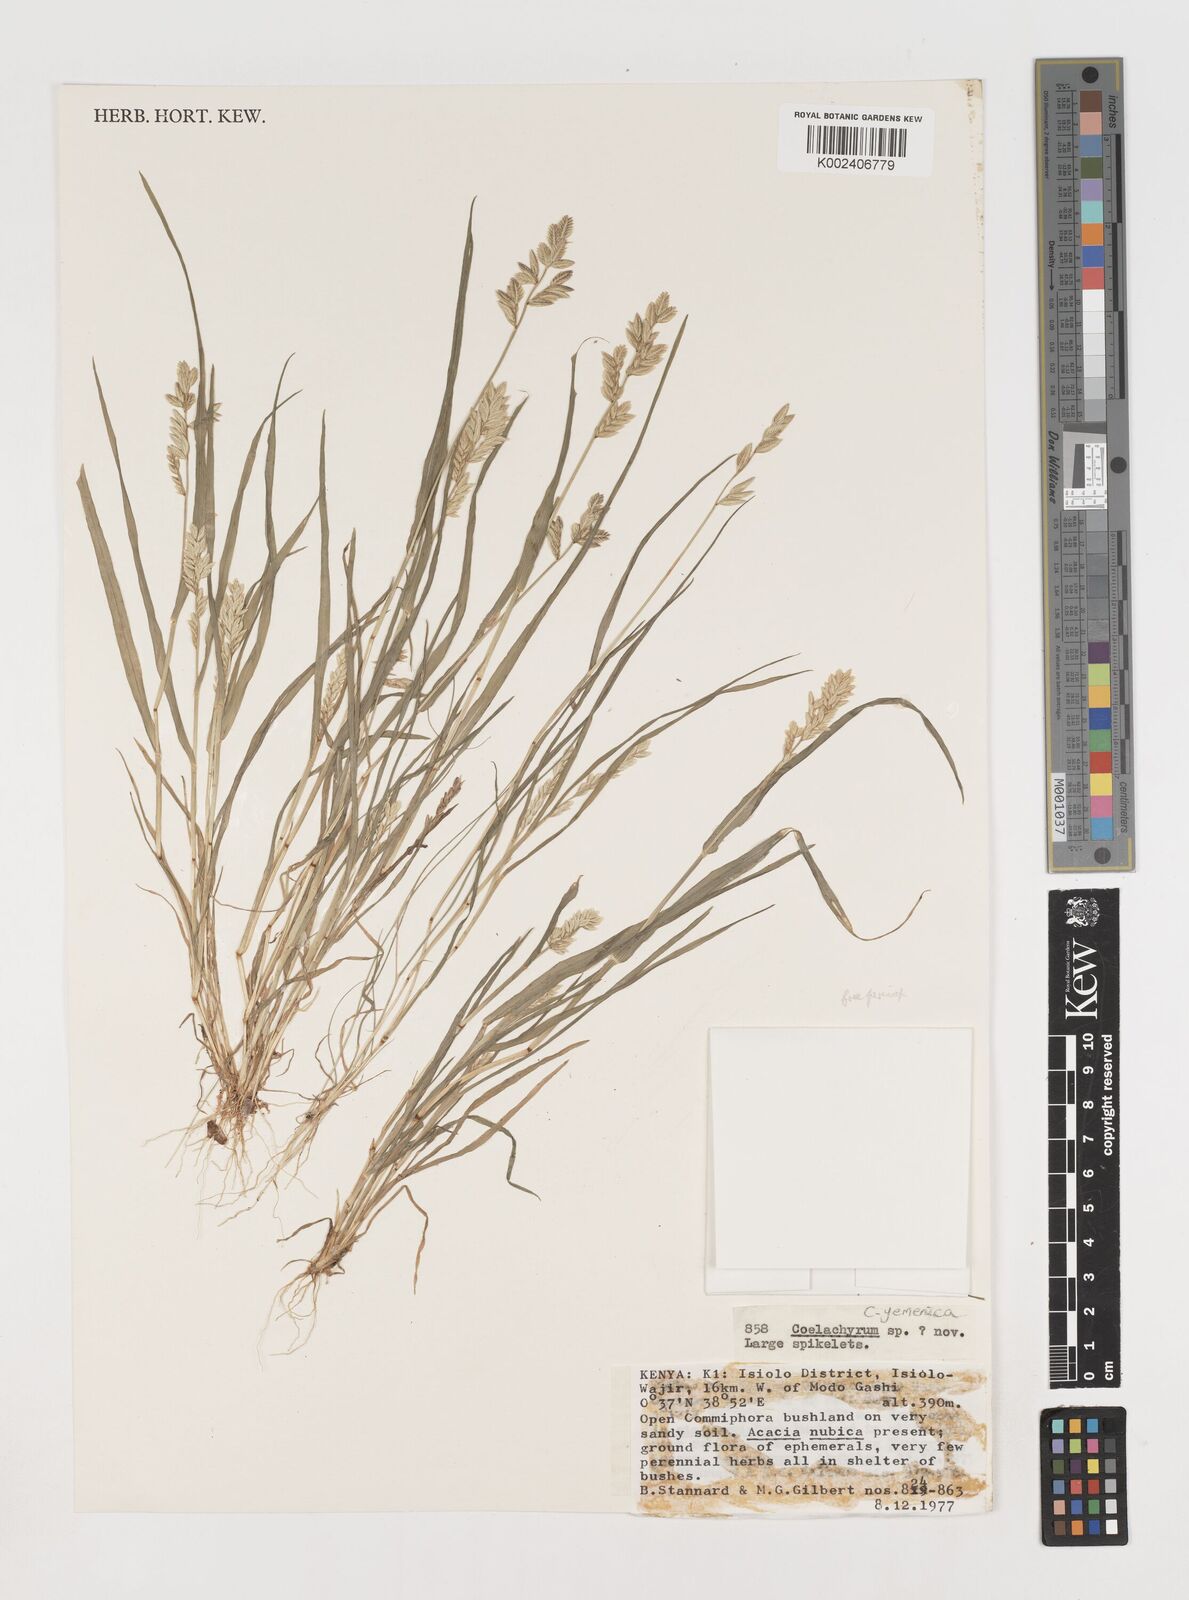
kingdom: Plantae
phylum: Tracheophyta
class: Liliopsida
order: Poales
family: Poaceae
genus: Disakisperma
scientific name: Disakisperma yemenicum
